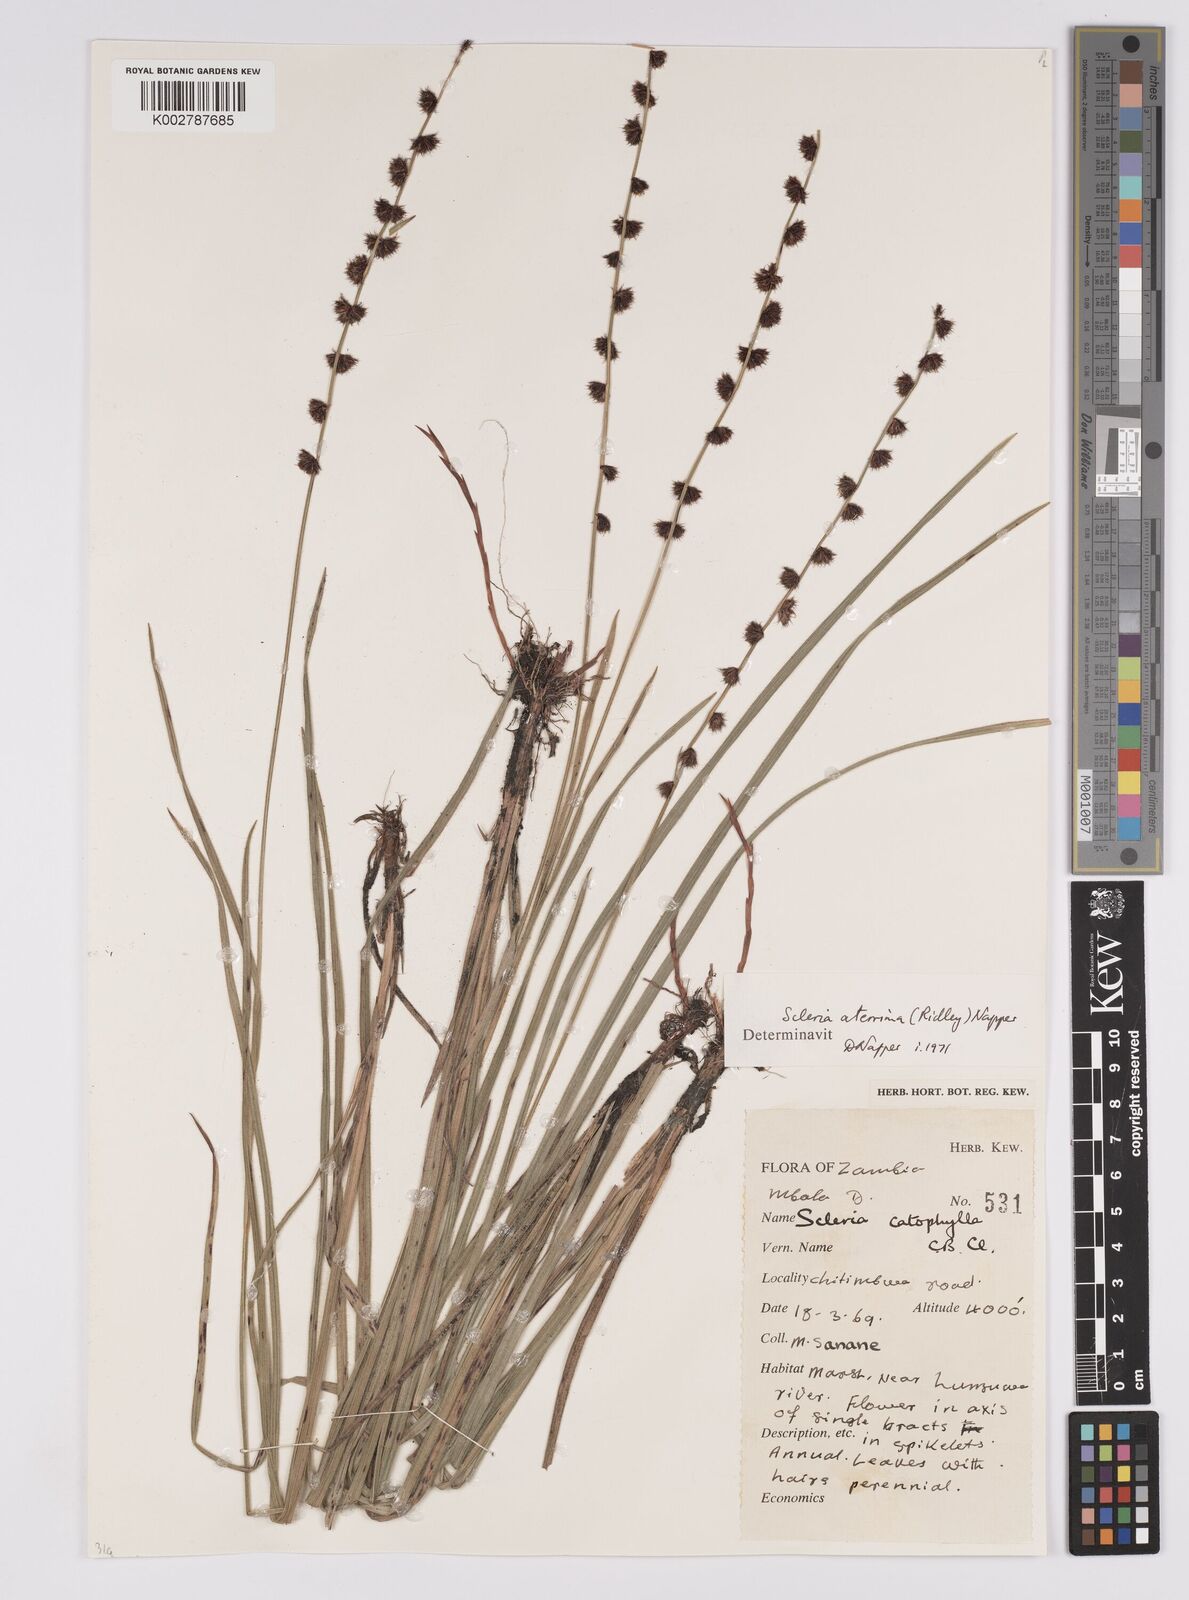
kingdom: Plantae
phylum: Tracheophyta
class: Liliopsida
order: Poales
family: Cyperaceae
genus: Scleria
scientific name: Scleria catophylla
